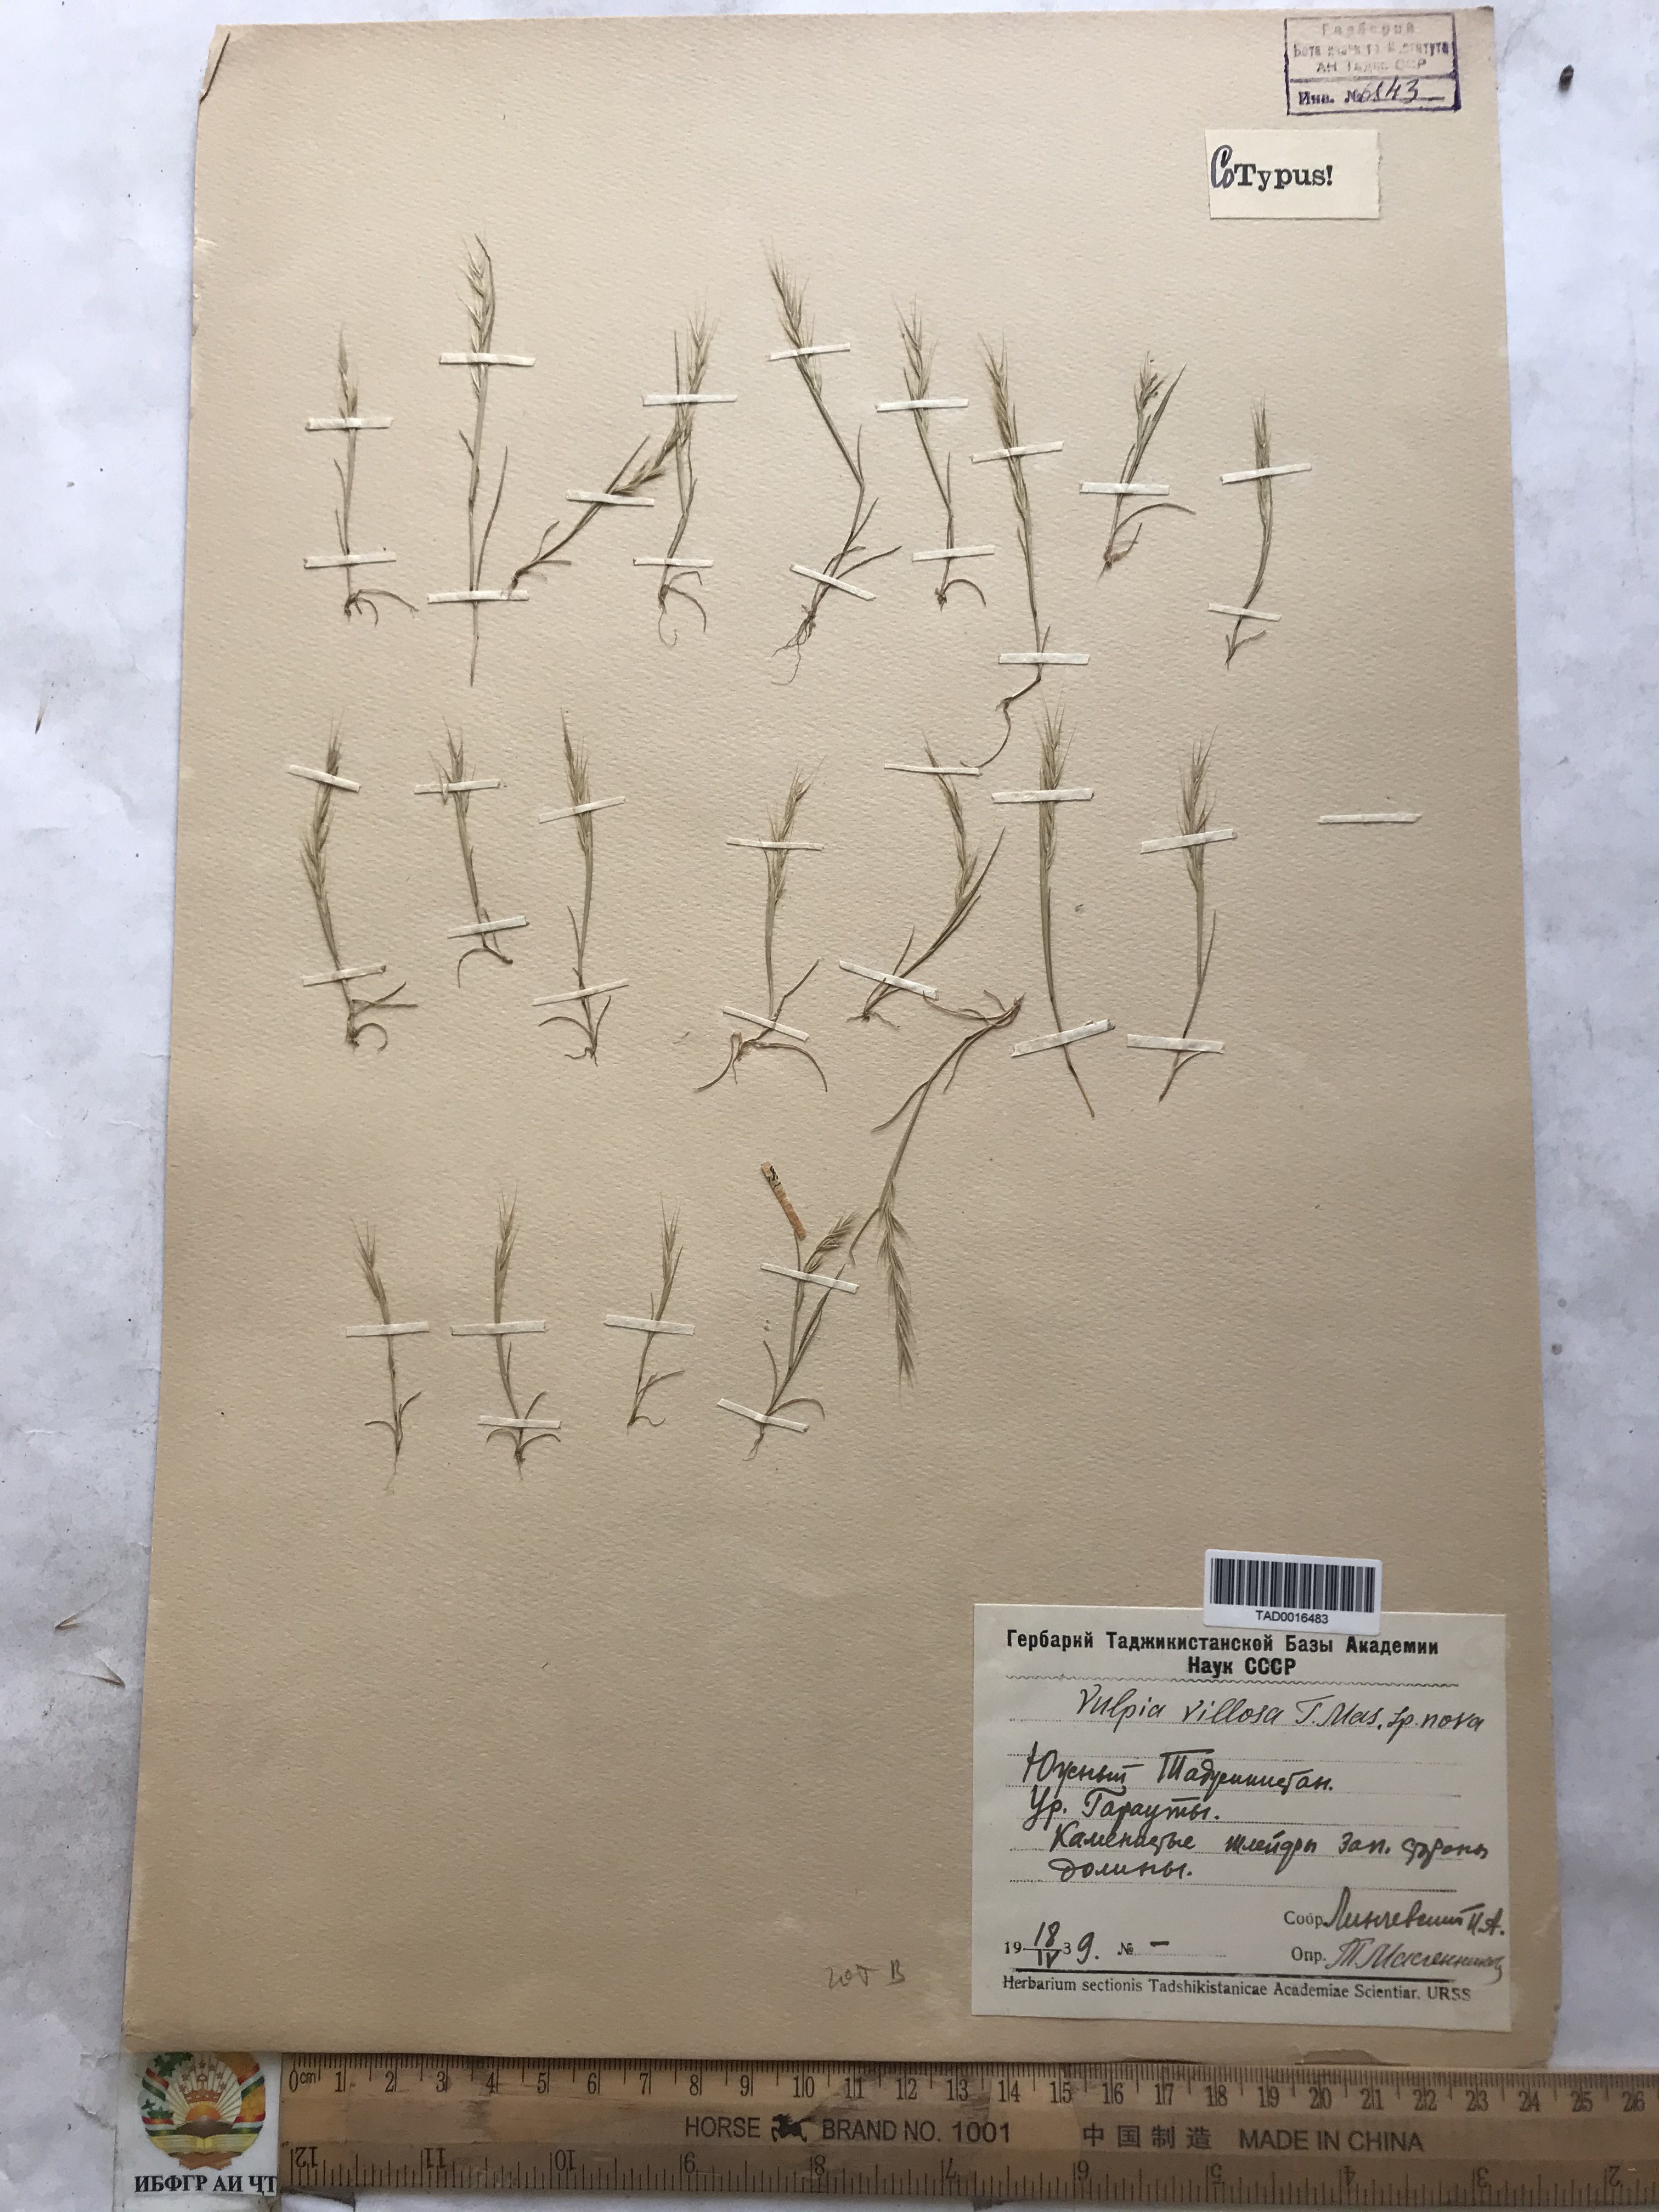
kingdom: Plantae
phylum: Tracheophyta
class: Liliopsida
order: Poales
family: Poaceae
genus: Festuca
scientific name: Festuca Vulpia persica
